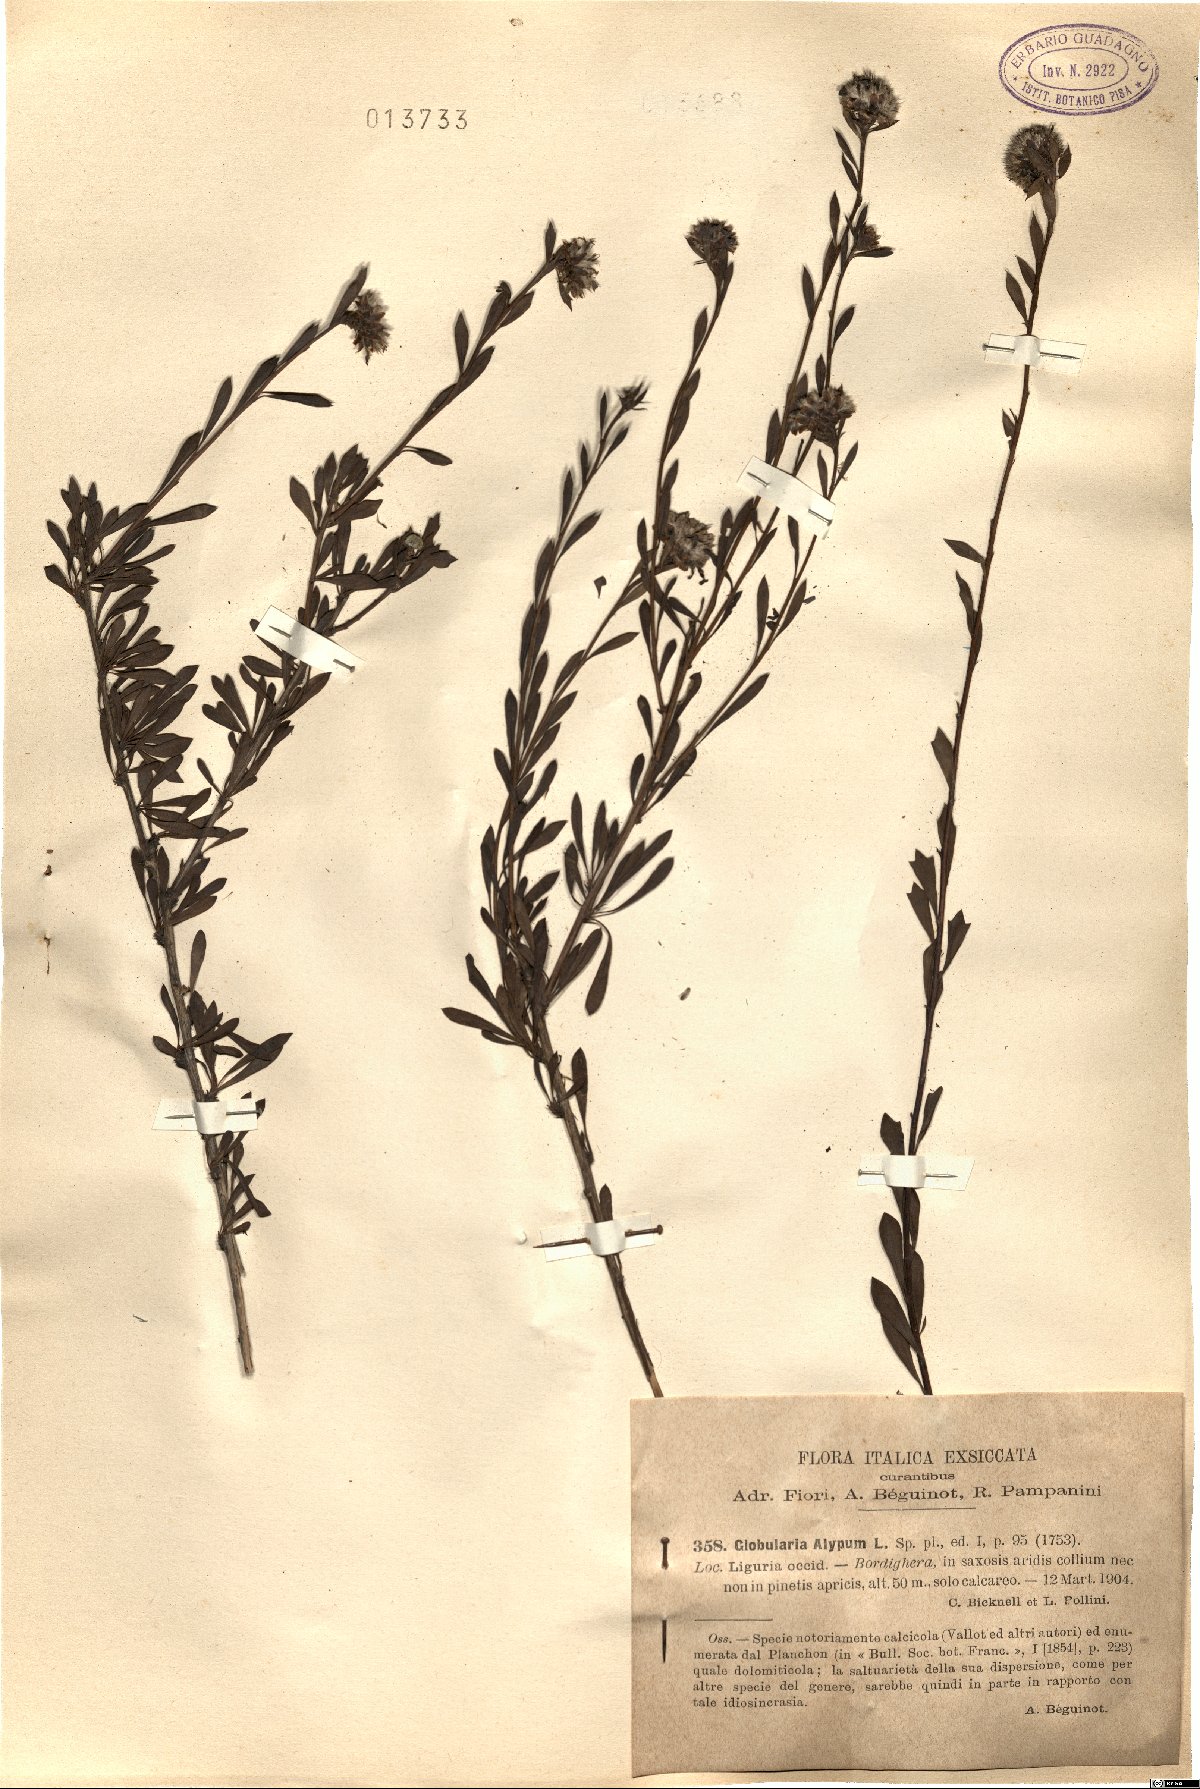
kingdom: Plantae
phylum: Tracheophyta
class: Magnoliopsida
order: Lamiales
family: Plantaginaceae
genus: Globularia
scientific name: Globularia alypum
